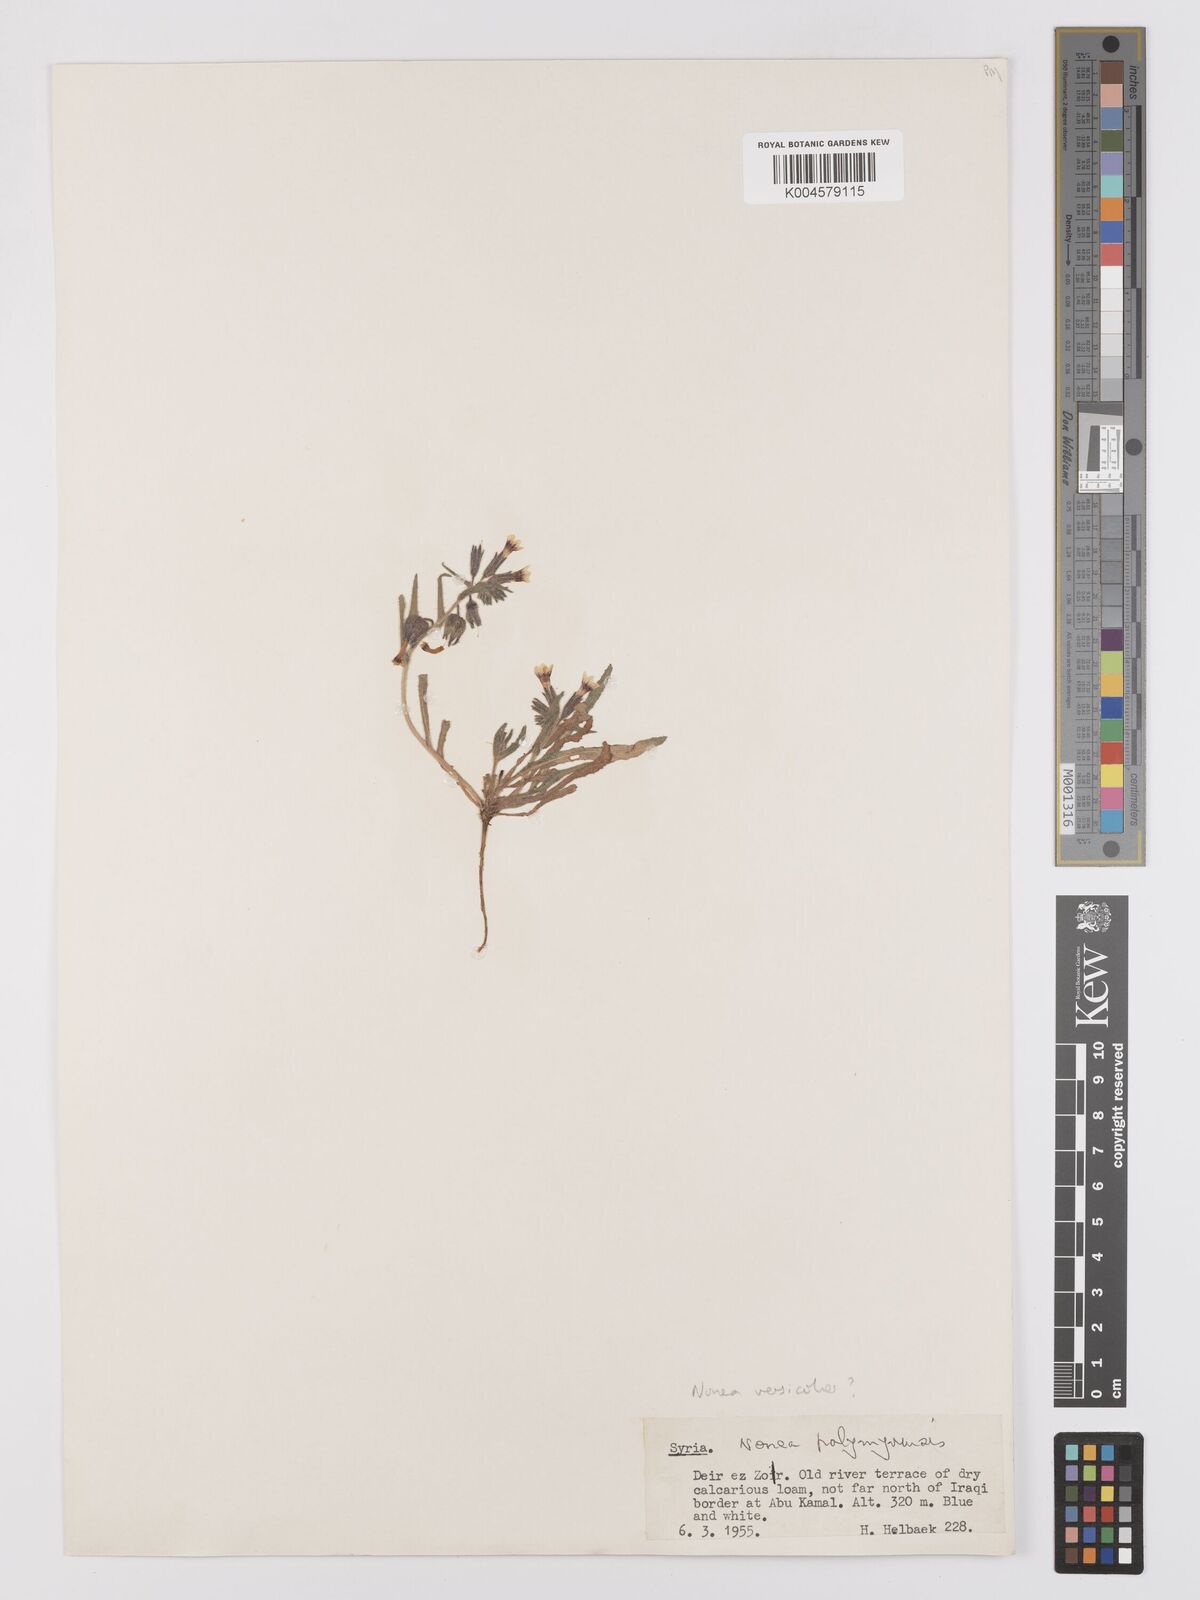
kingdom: Plantae
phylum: Tracheophyta
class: Magnoliopsida
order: Boraginales
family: Boraginaceae
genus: Nonea
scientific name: Nonea palmyrensis
